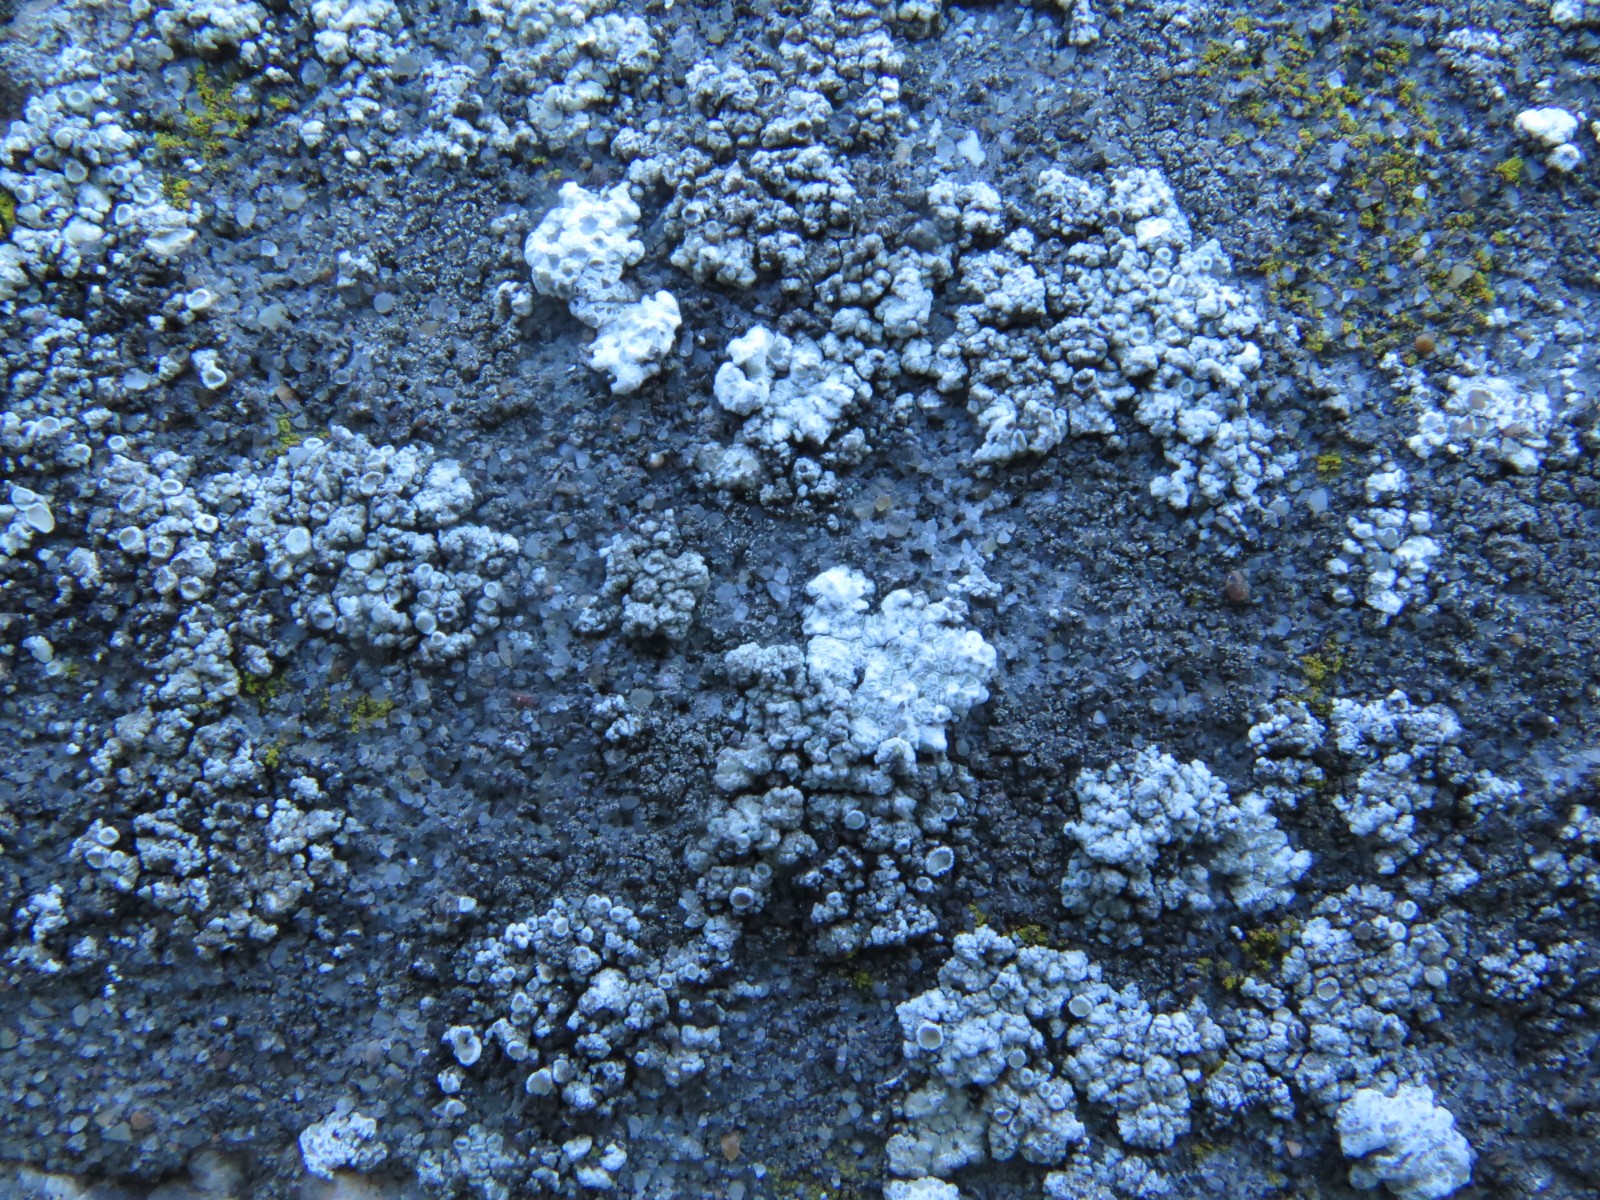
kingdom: Fungi
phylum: Ascomycota
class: Lecanoromycetes
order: Lecanorales
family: Lecanoraceae
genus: Polyozosia
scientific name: Polyozosia albescens
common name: cement-kantskivelav
